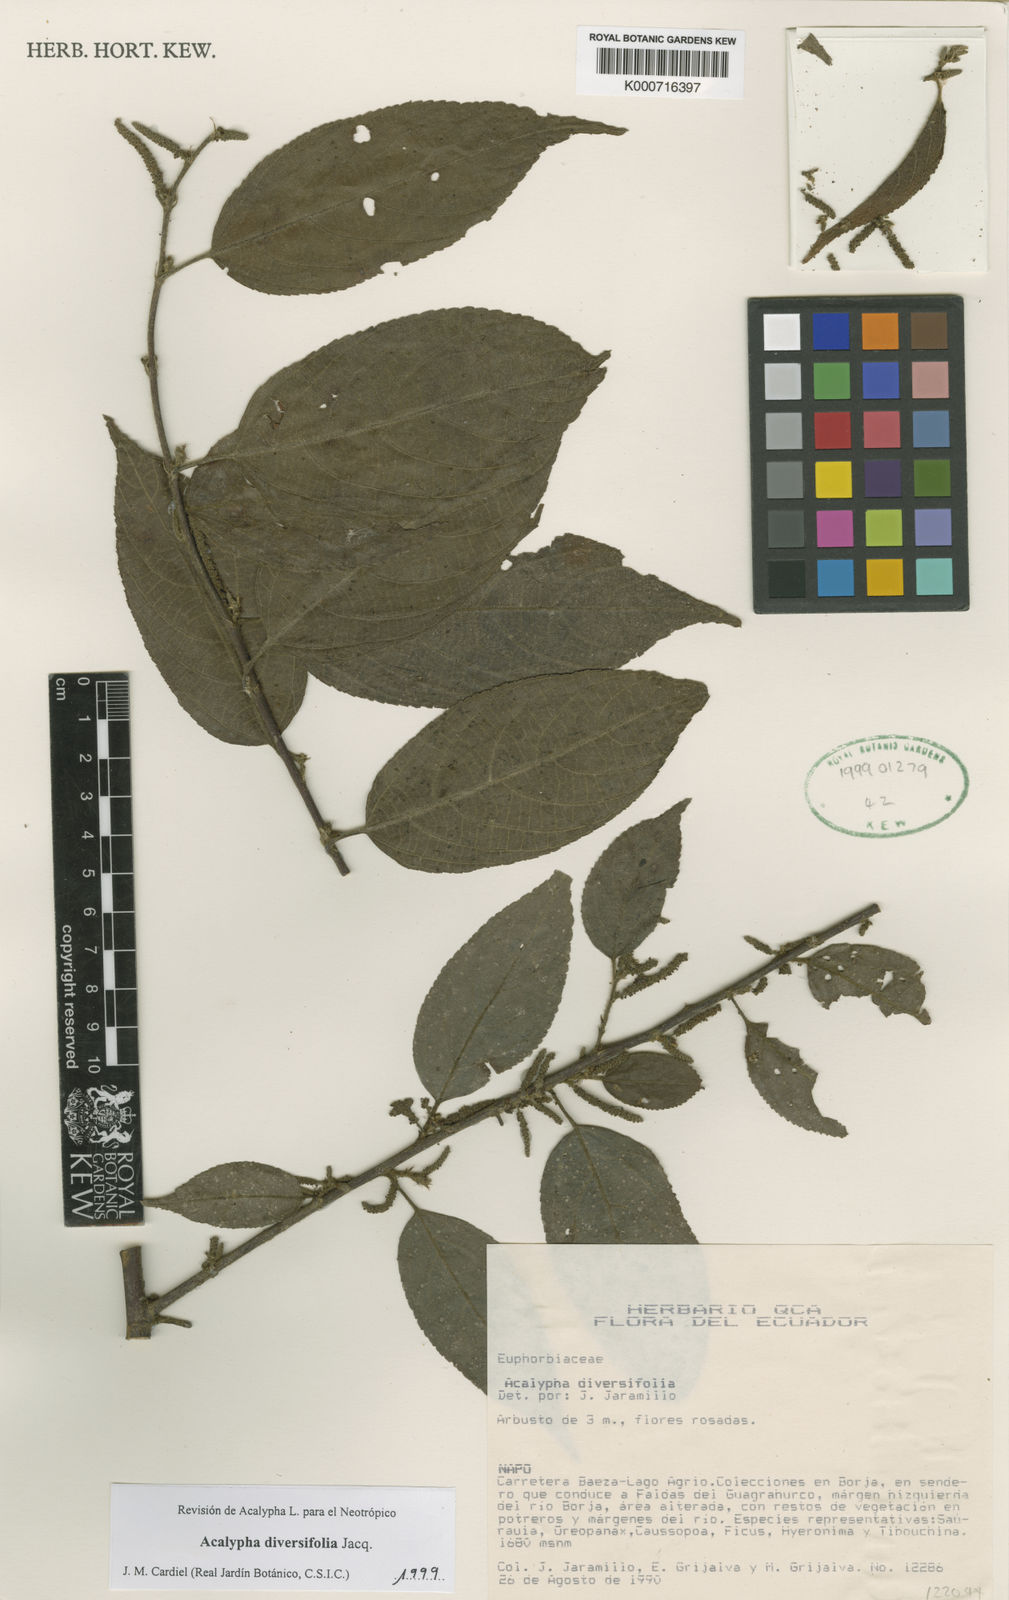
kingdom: Plantae
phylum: Tracheophyta
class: Magnoliopsida
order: Malpighiales
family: Euphorbiaceae
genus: Acalypha
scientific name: Acalypha diversifolia
